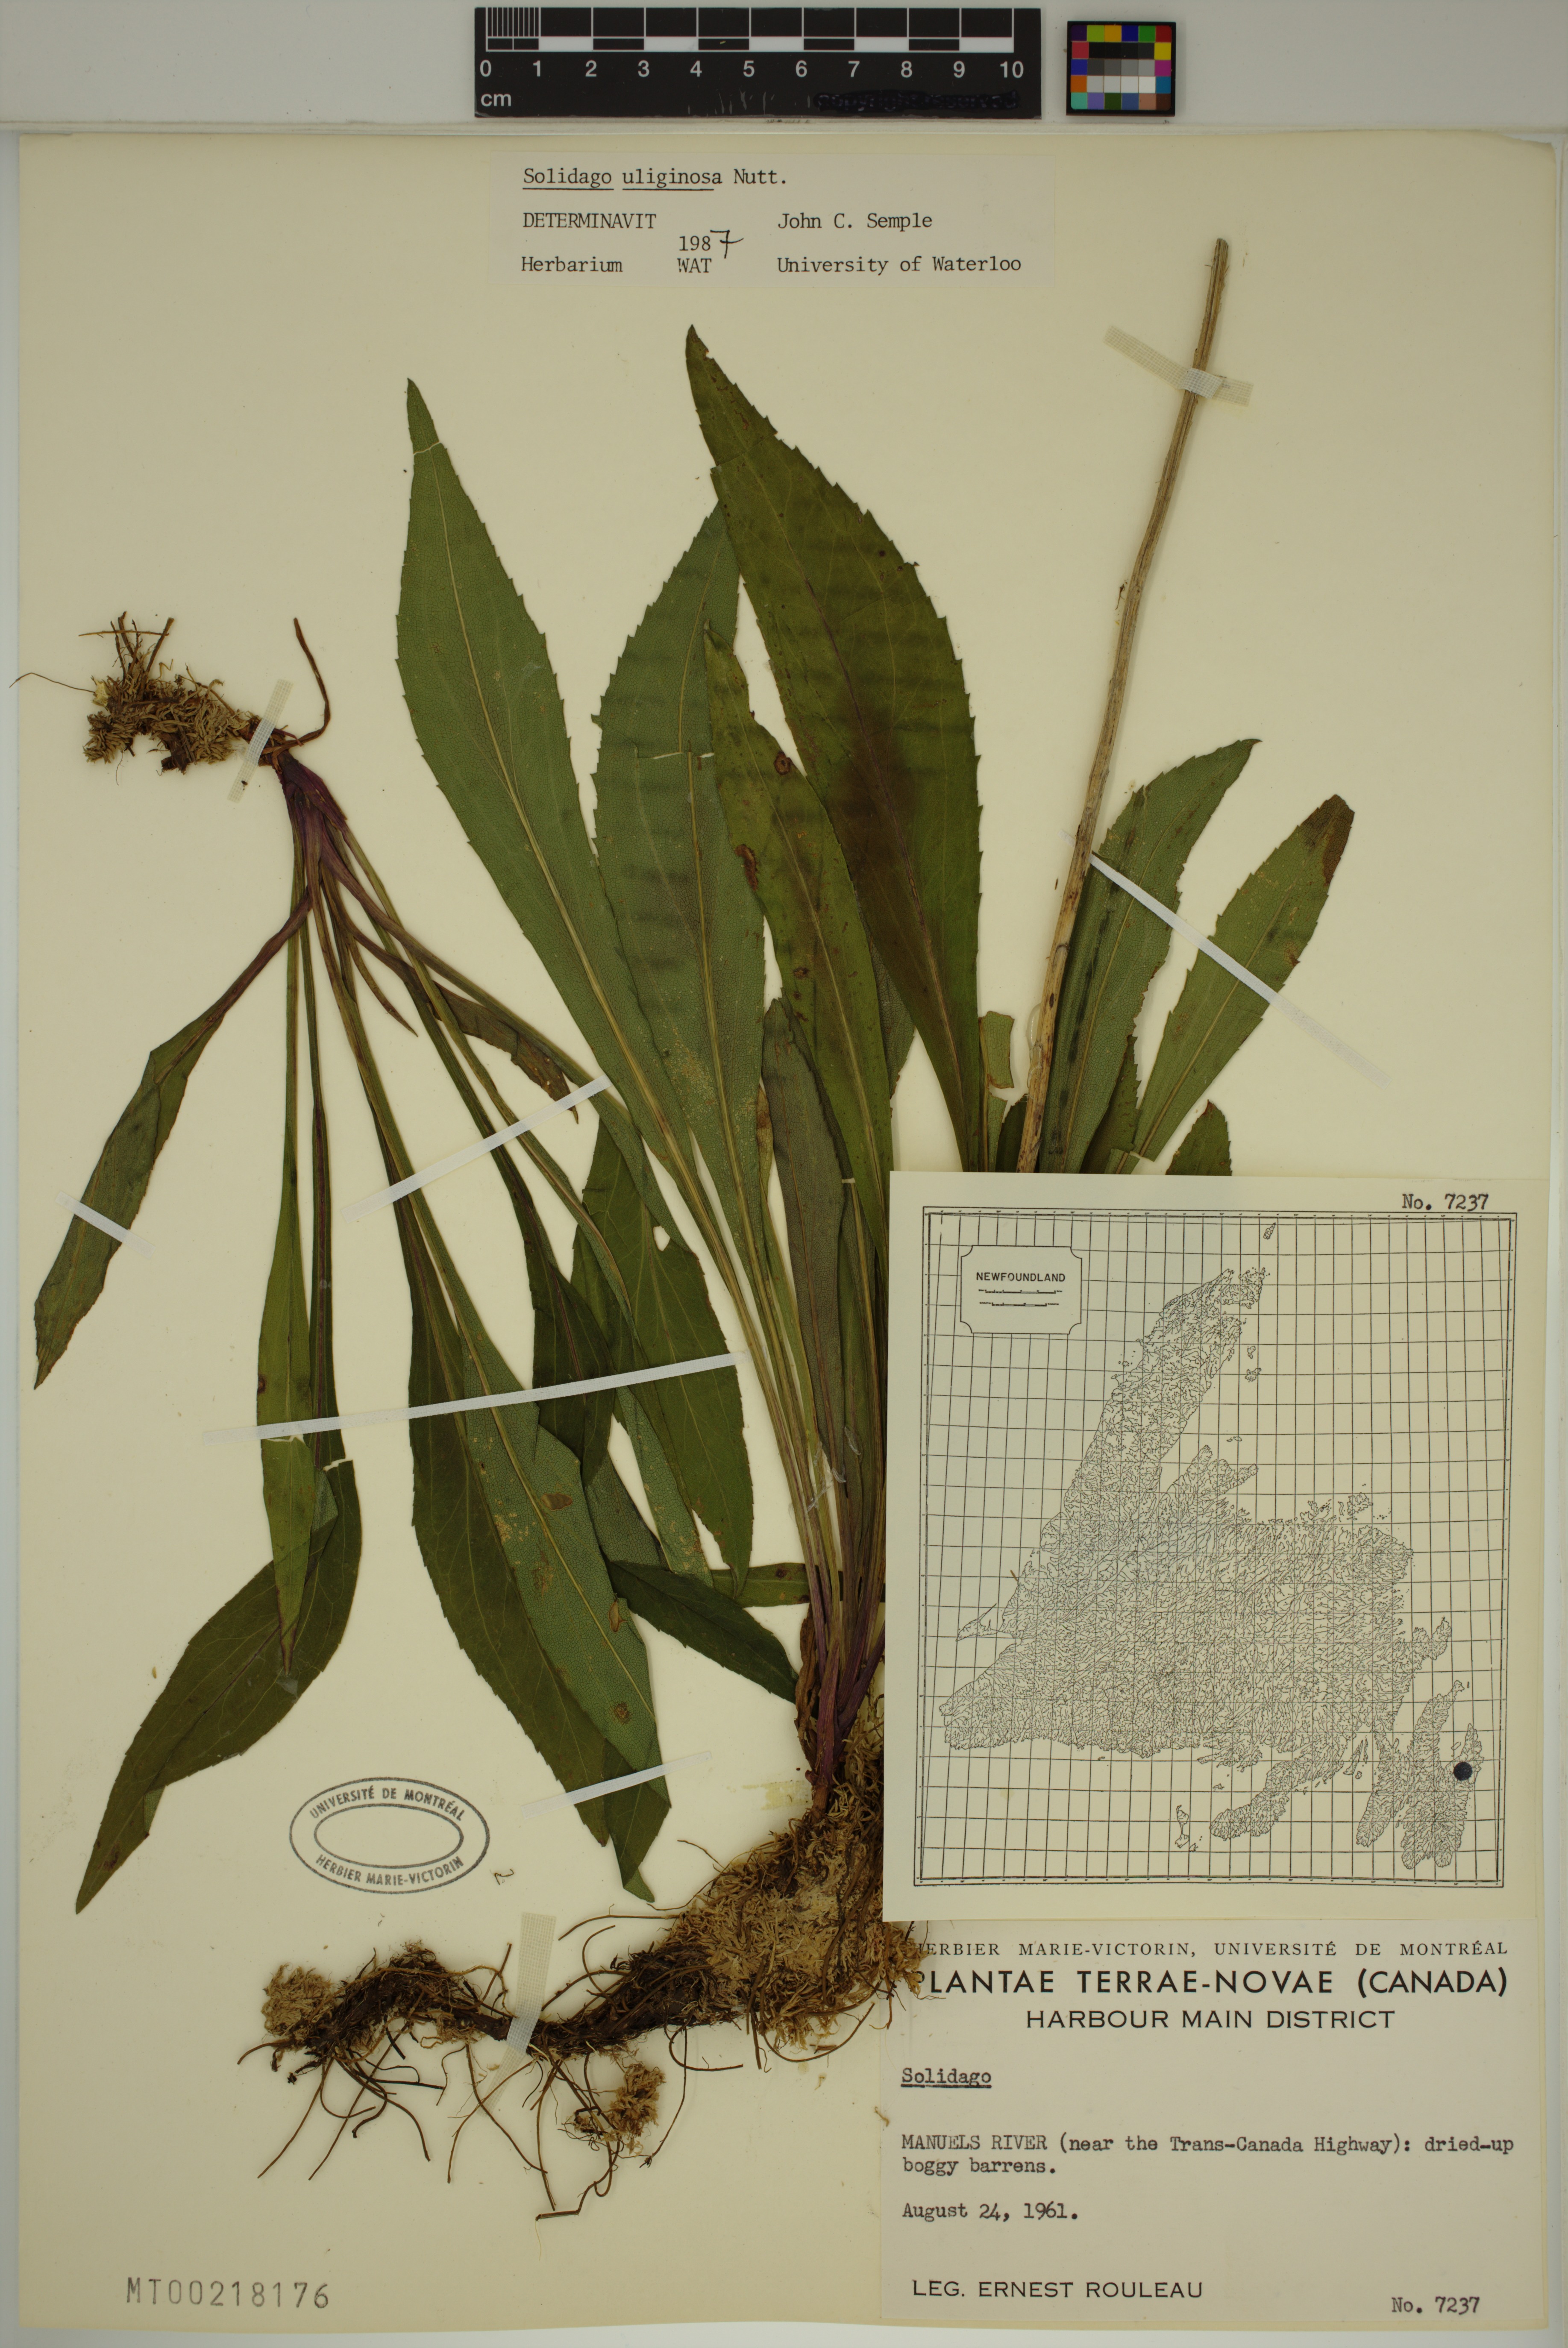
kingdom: Plantae
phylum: Tracheophyta
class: Magnoliopsida
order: Asterales
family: Asteraceae
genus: Solidago
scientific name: Solidago uliginosa
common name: Bog goldenrod
